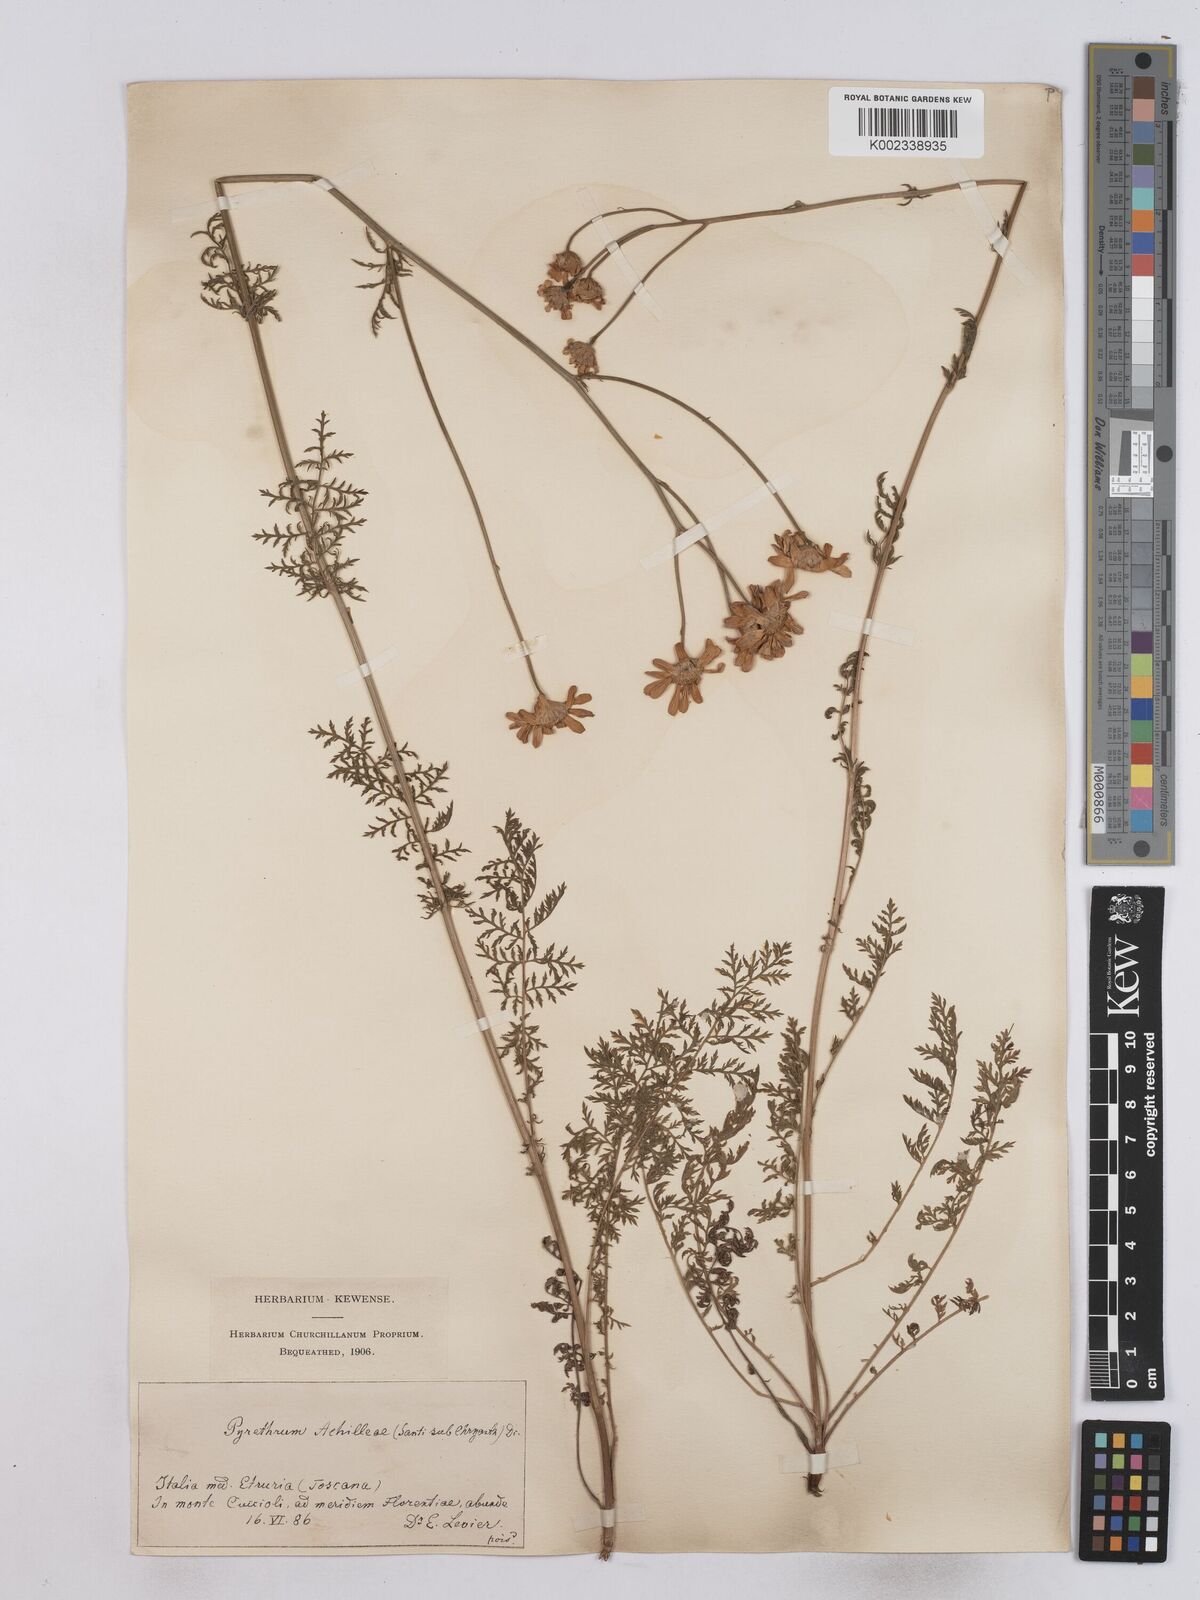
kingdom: Plantae
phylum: Tracheophyta
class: Magnoliopsida
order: Asterales
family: Asteraceae
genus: Tanacetum
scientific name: Tanacetum achilleae
